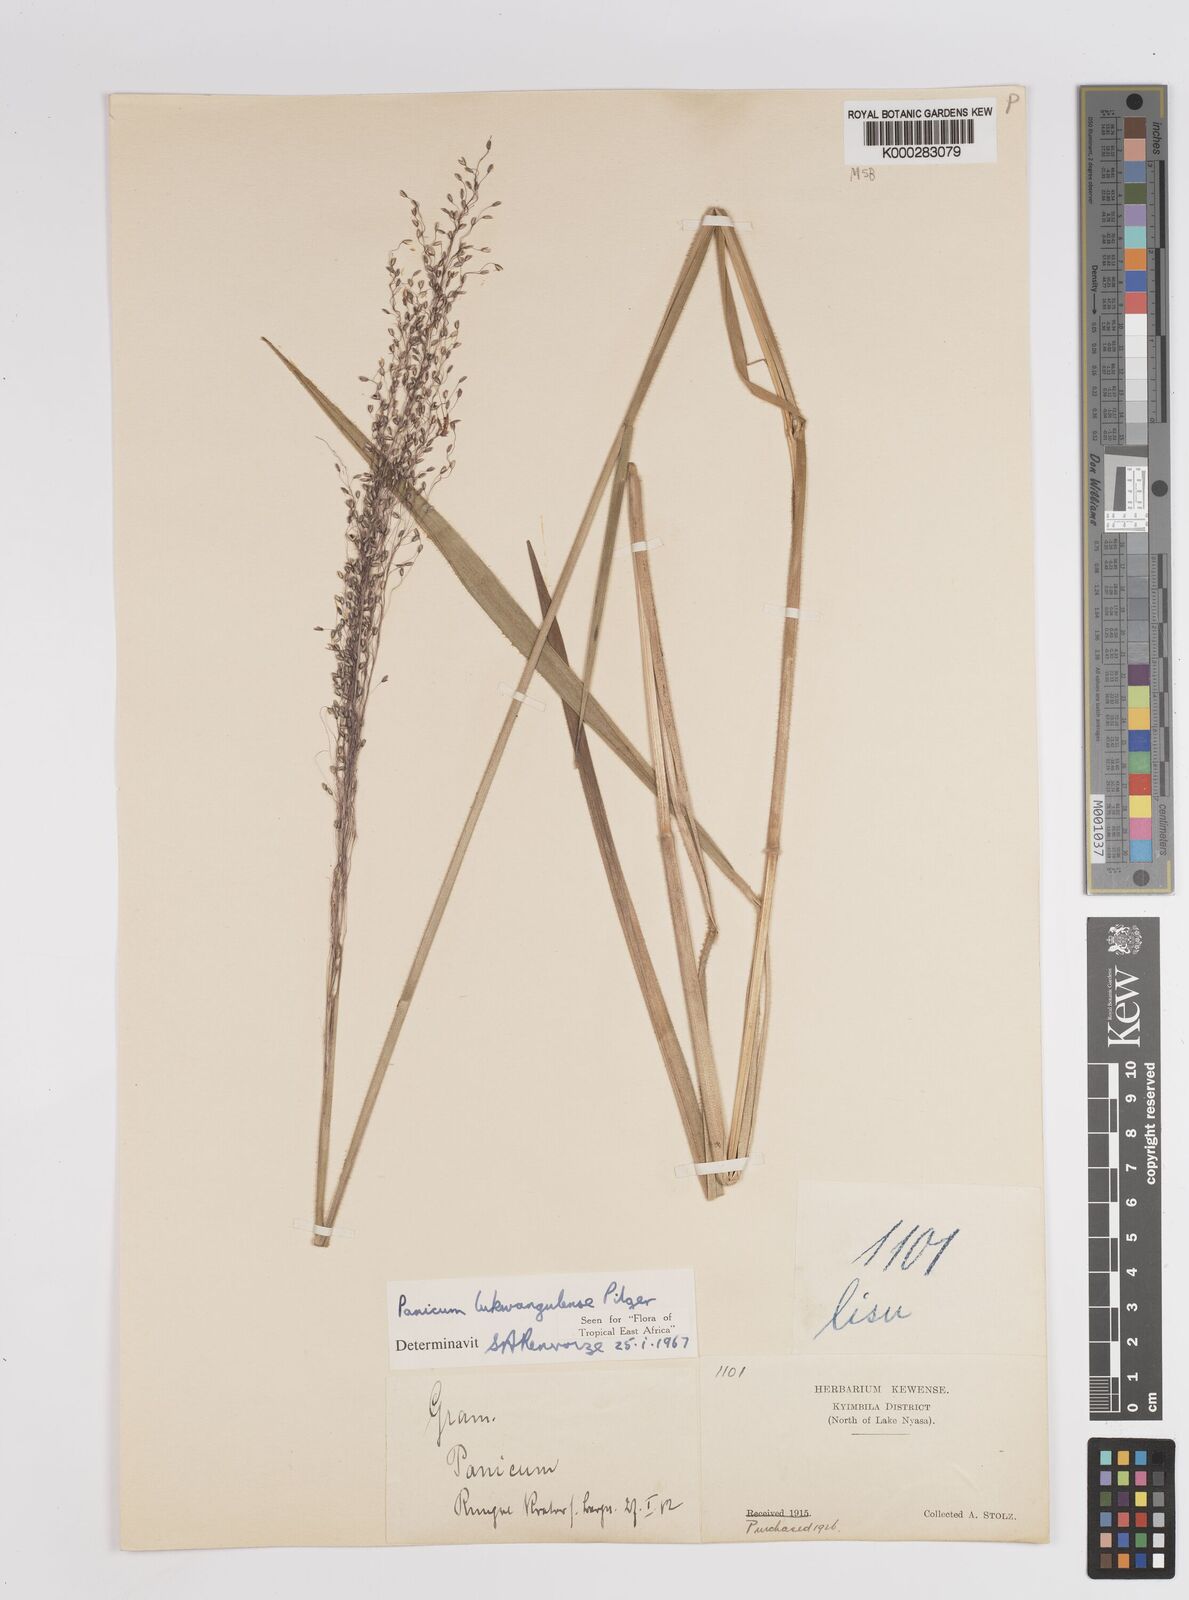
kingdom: Plantae
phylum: Tracheophyta
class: Liliopsida
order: Poales
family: Poaceae
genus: Adenochloa
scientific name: Adenochloa lukwangulense
